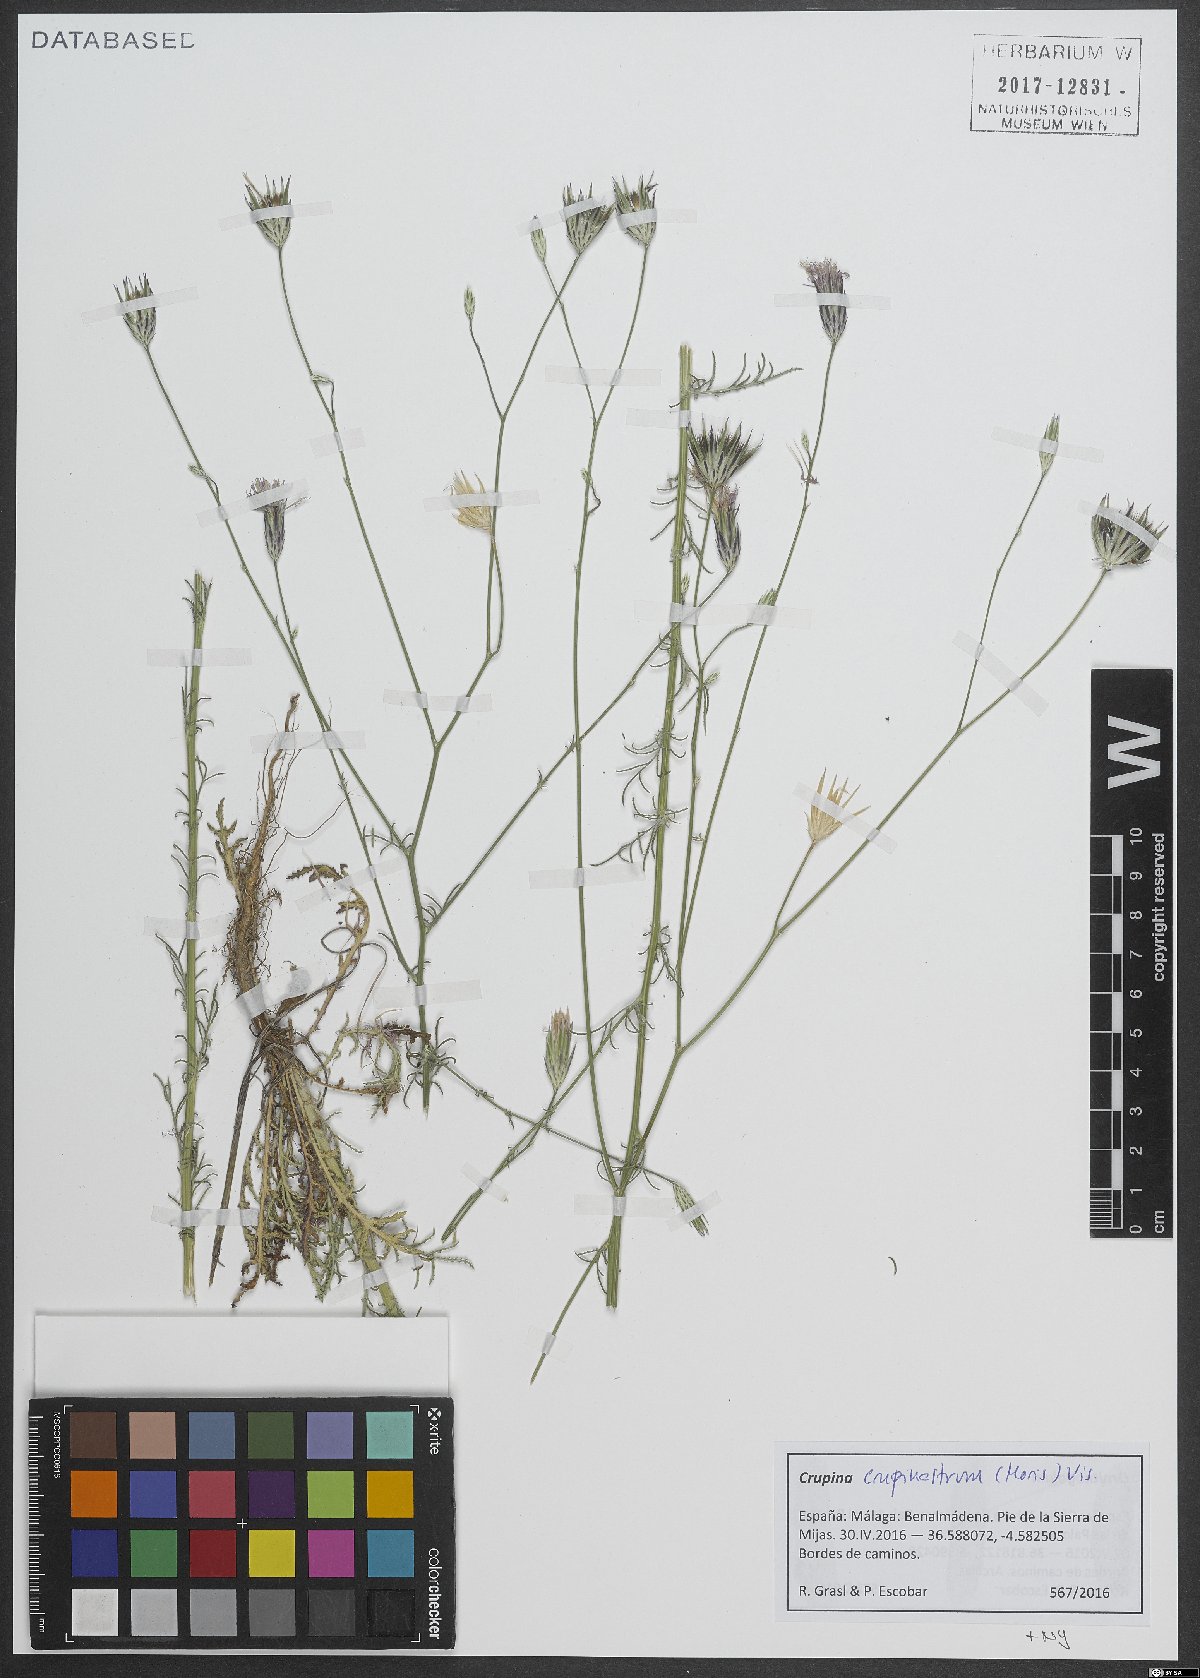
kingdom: Plantae
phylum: Tracheophyta
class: Magnoliopsida
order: Asterales
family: Asteraceae
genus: Crupina
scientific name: Crupina crupinastrum
